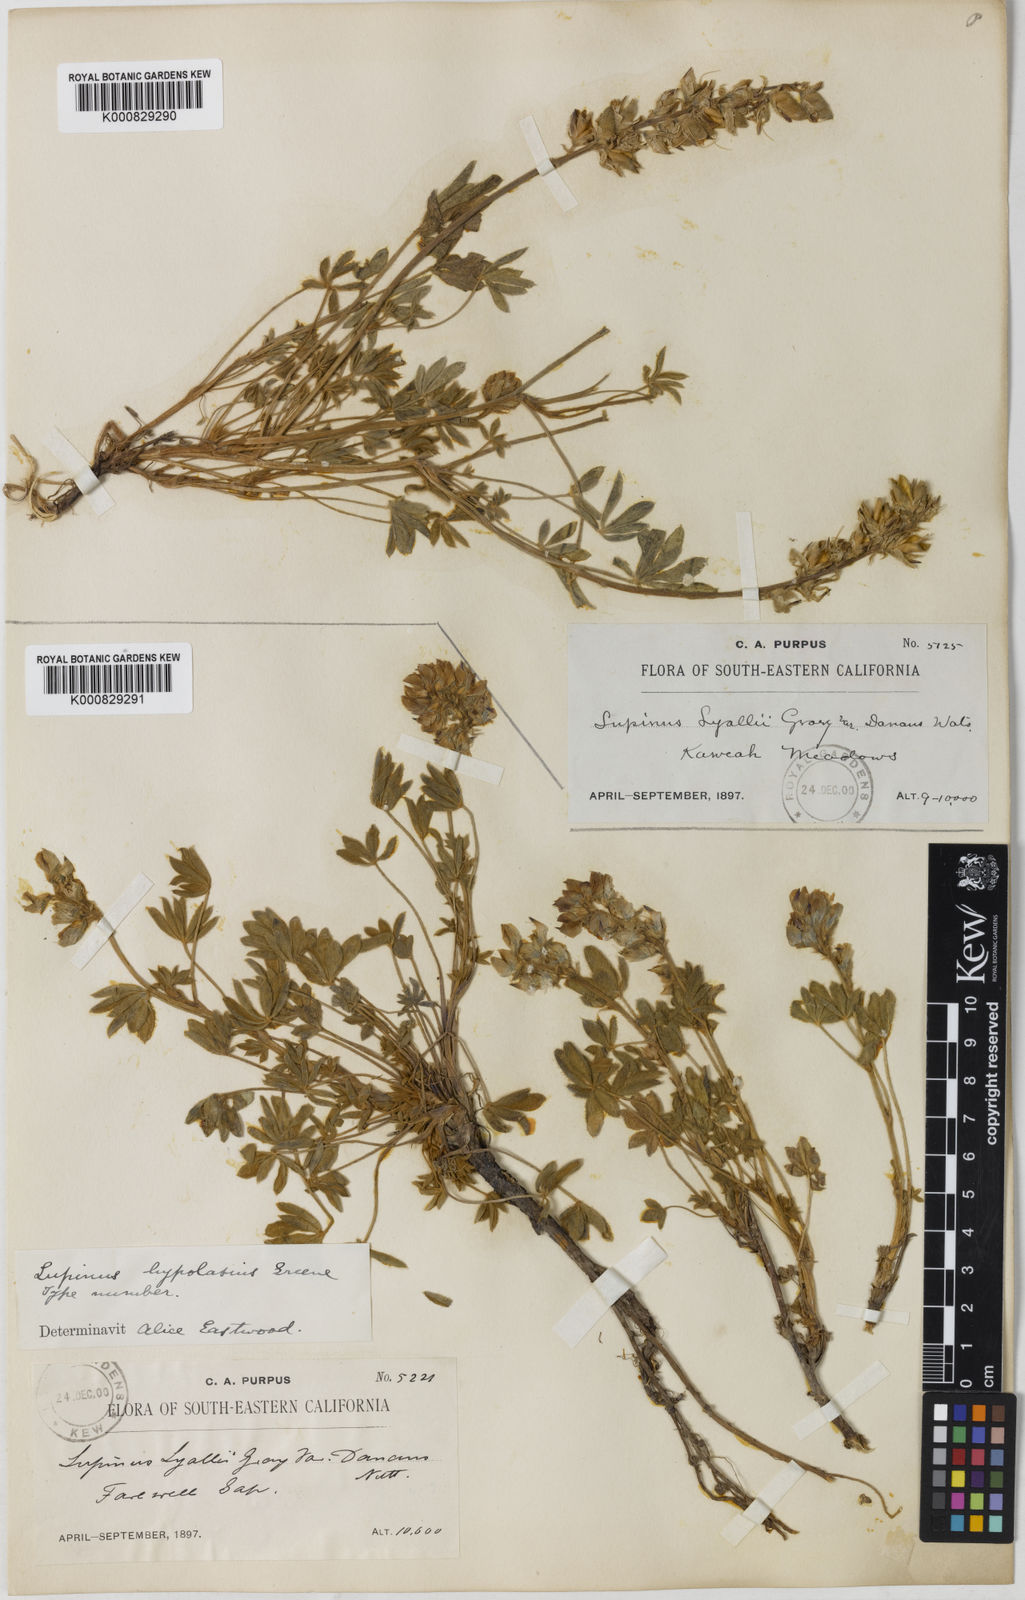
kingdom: Plantae
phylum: Tracheophyta
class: Magnoliopsida
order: Fabales
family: Fabaceae
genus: Lupinus
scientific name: Lupinus culbertsonii
